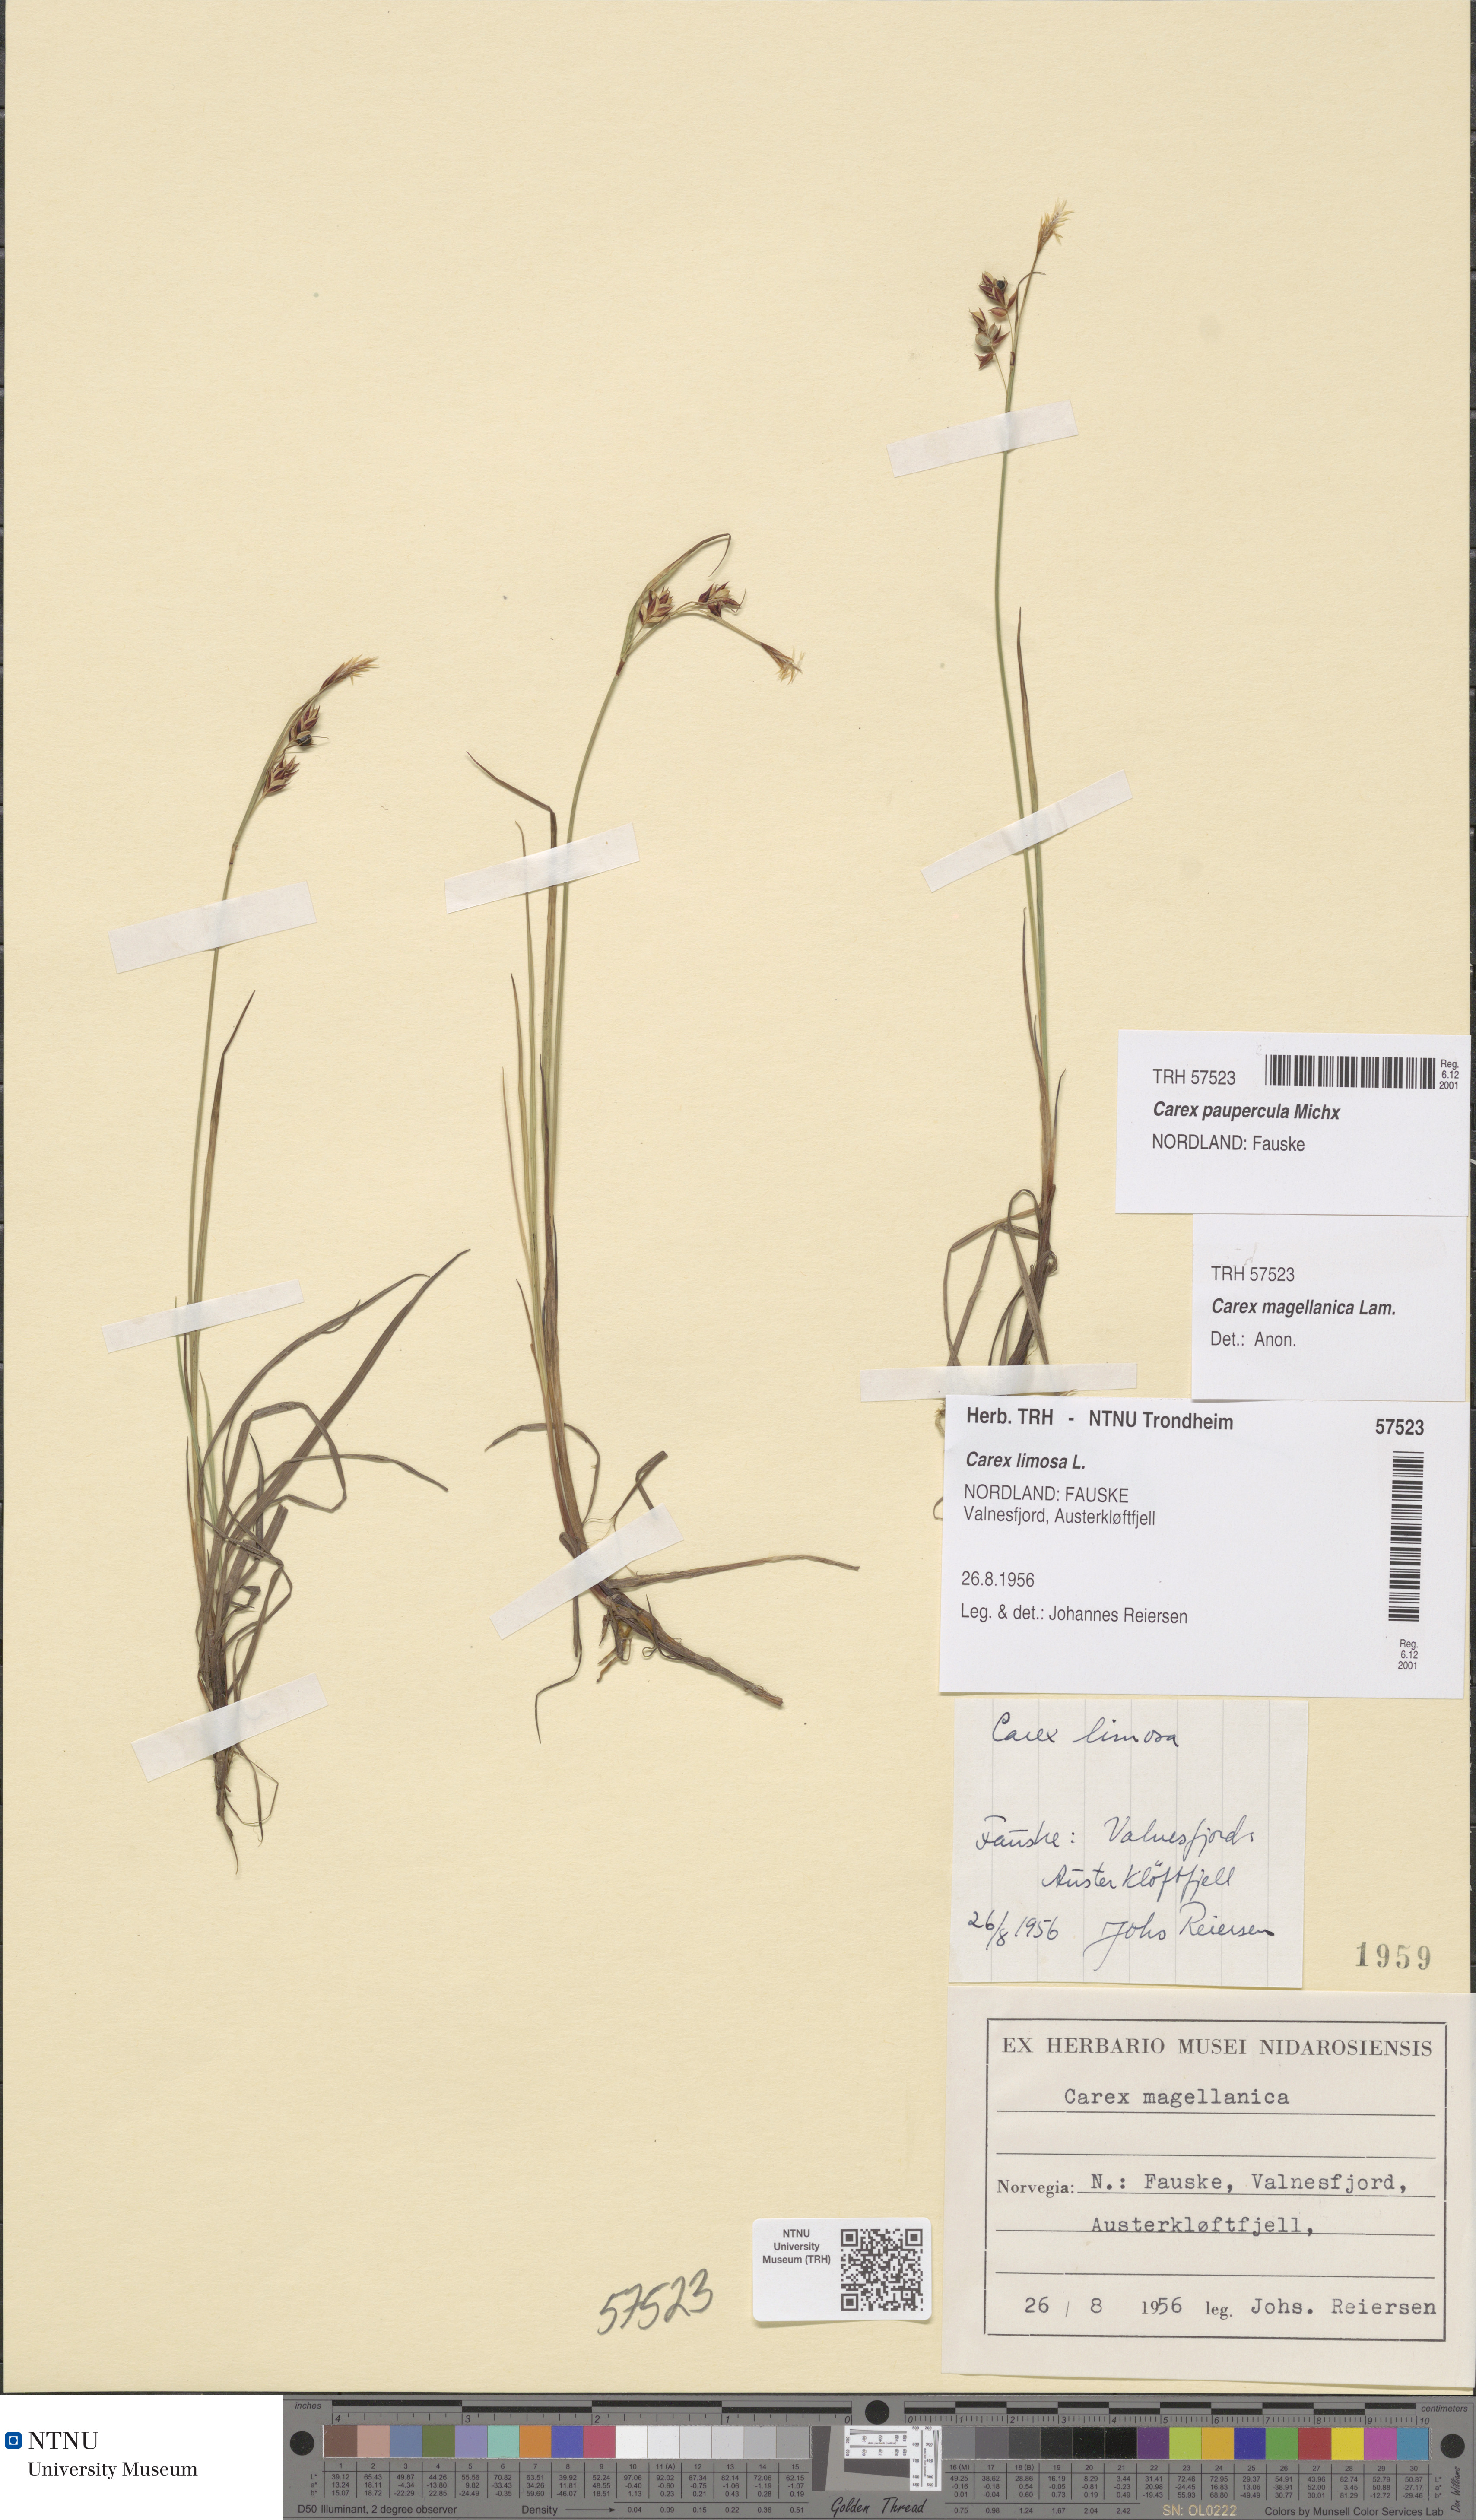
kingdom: Plantae
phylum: Tracheophyta
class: Liliopsida
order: Poales
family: Cyperaceae
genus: Carex
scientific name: Carex magellanica
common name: Bog sedge
